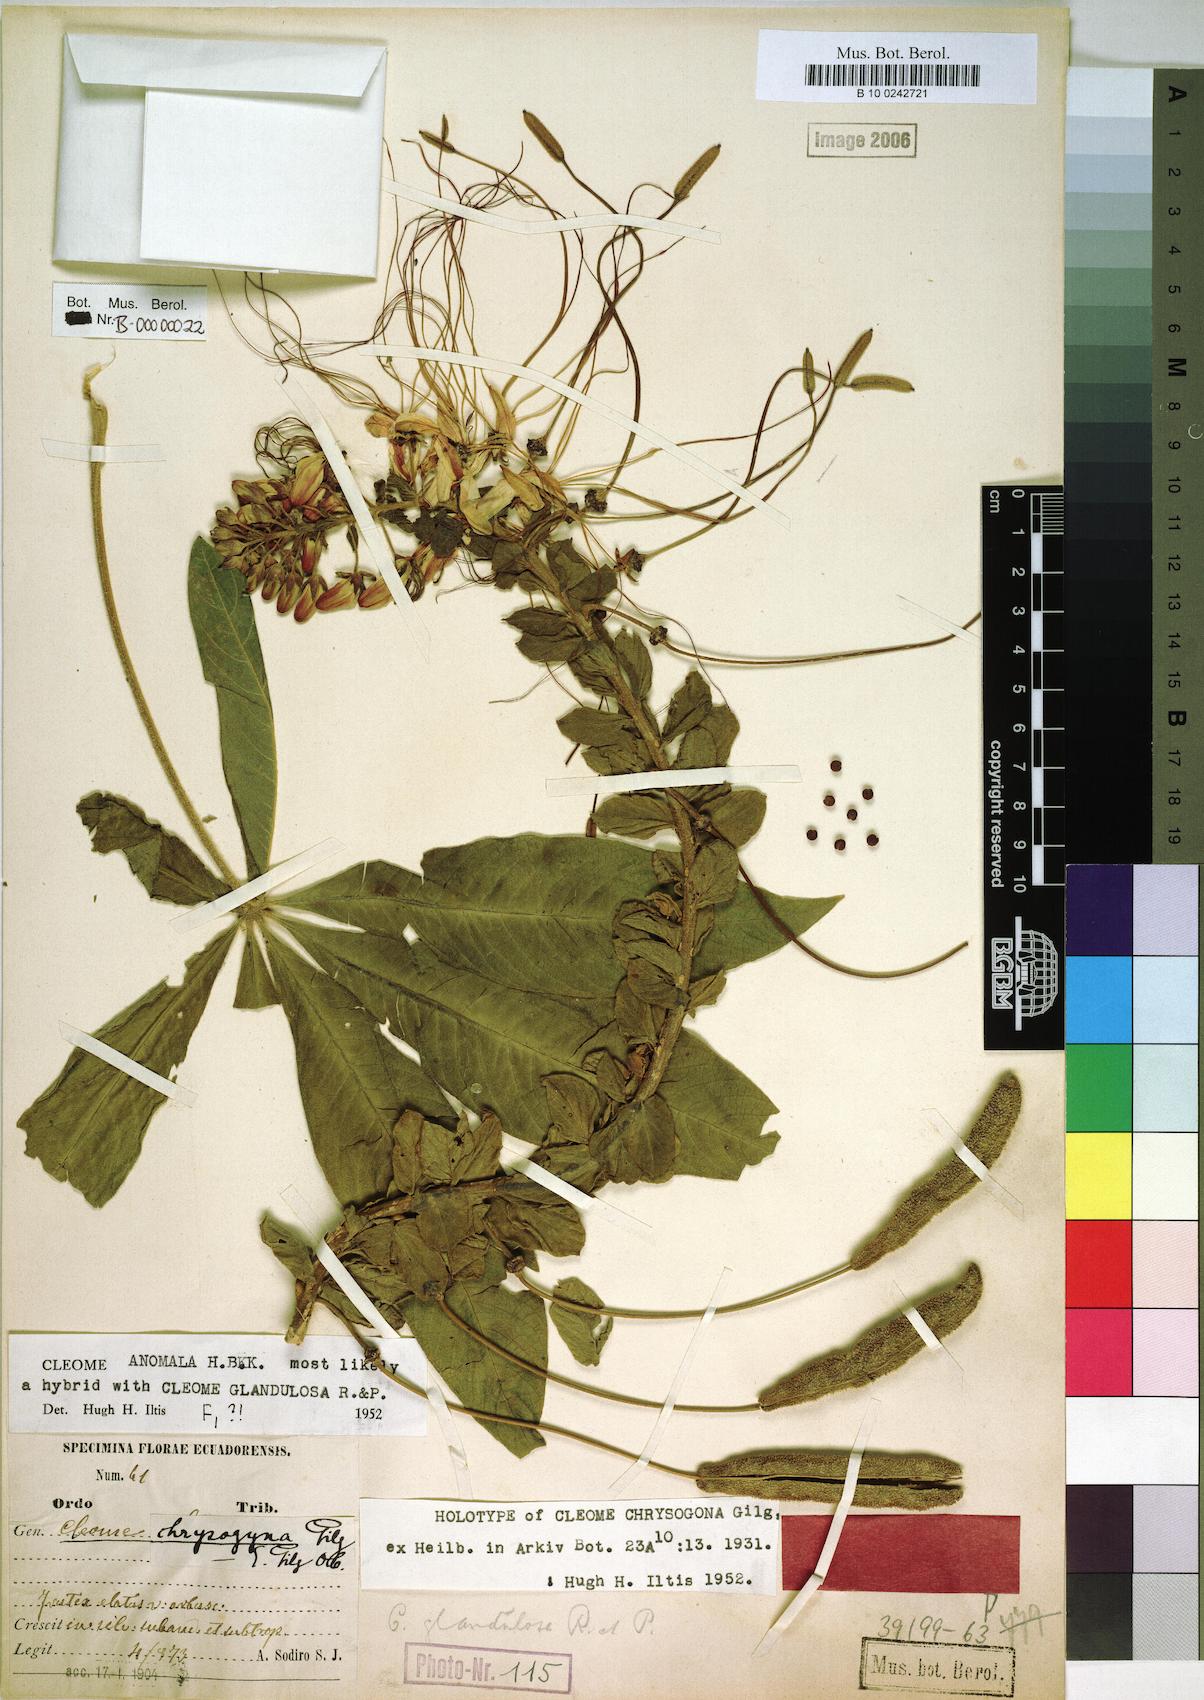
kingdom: Plantae
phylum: Tracheophyta
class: Magnoliopsida
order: Brassicales
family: Cleomaceae
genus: Andinocleome
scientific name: Andinocleome anomala
